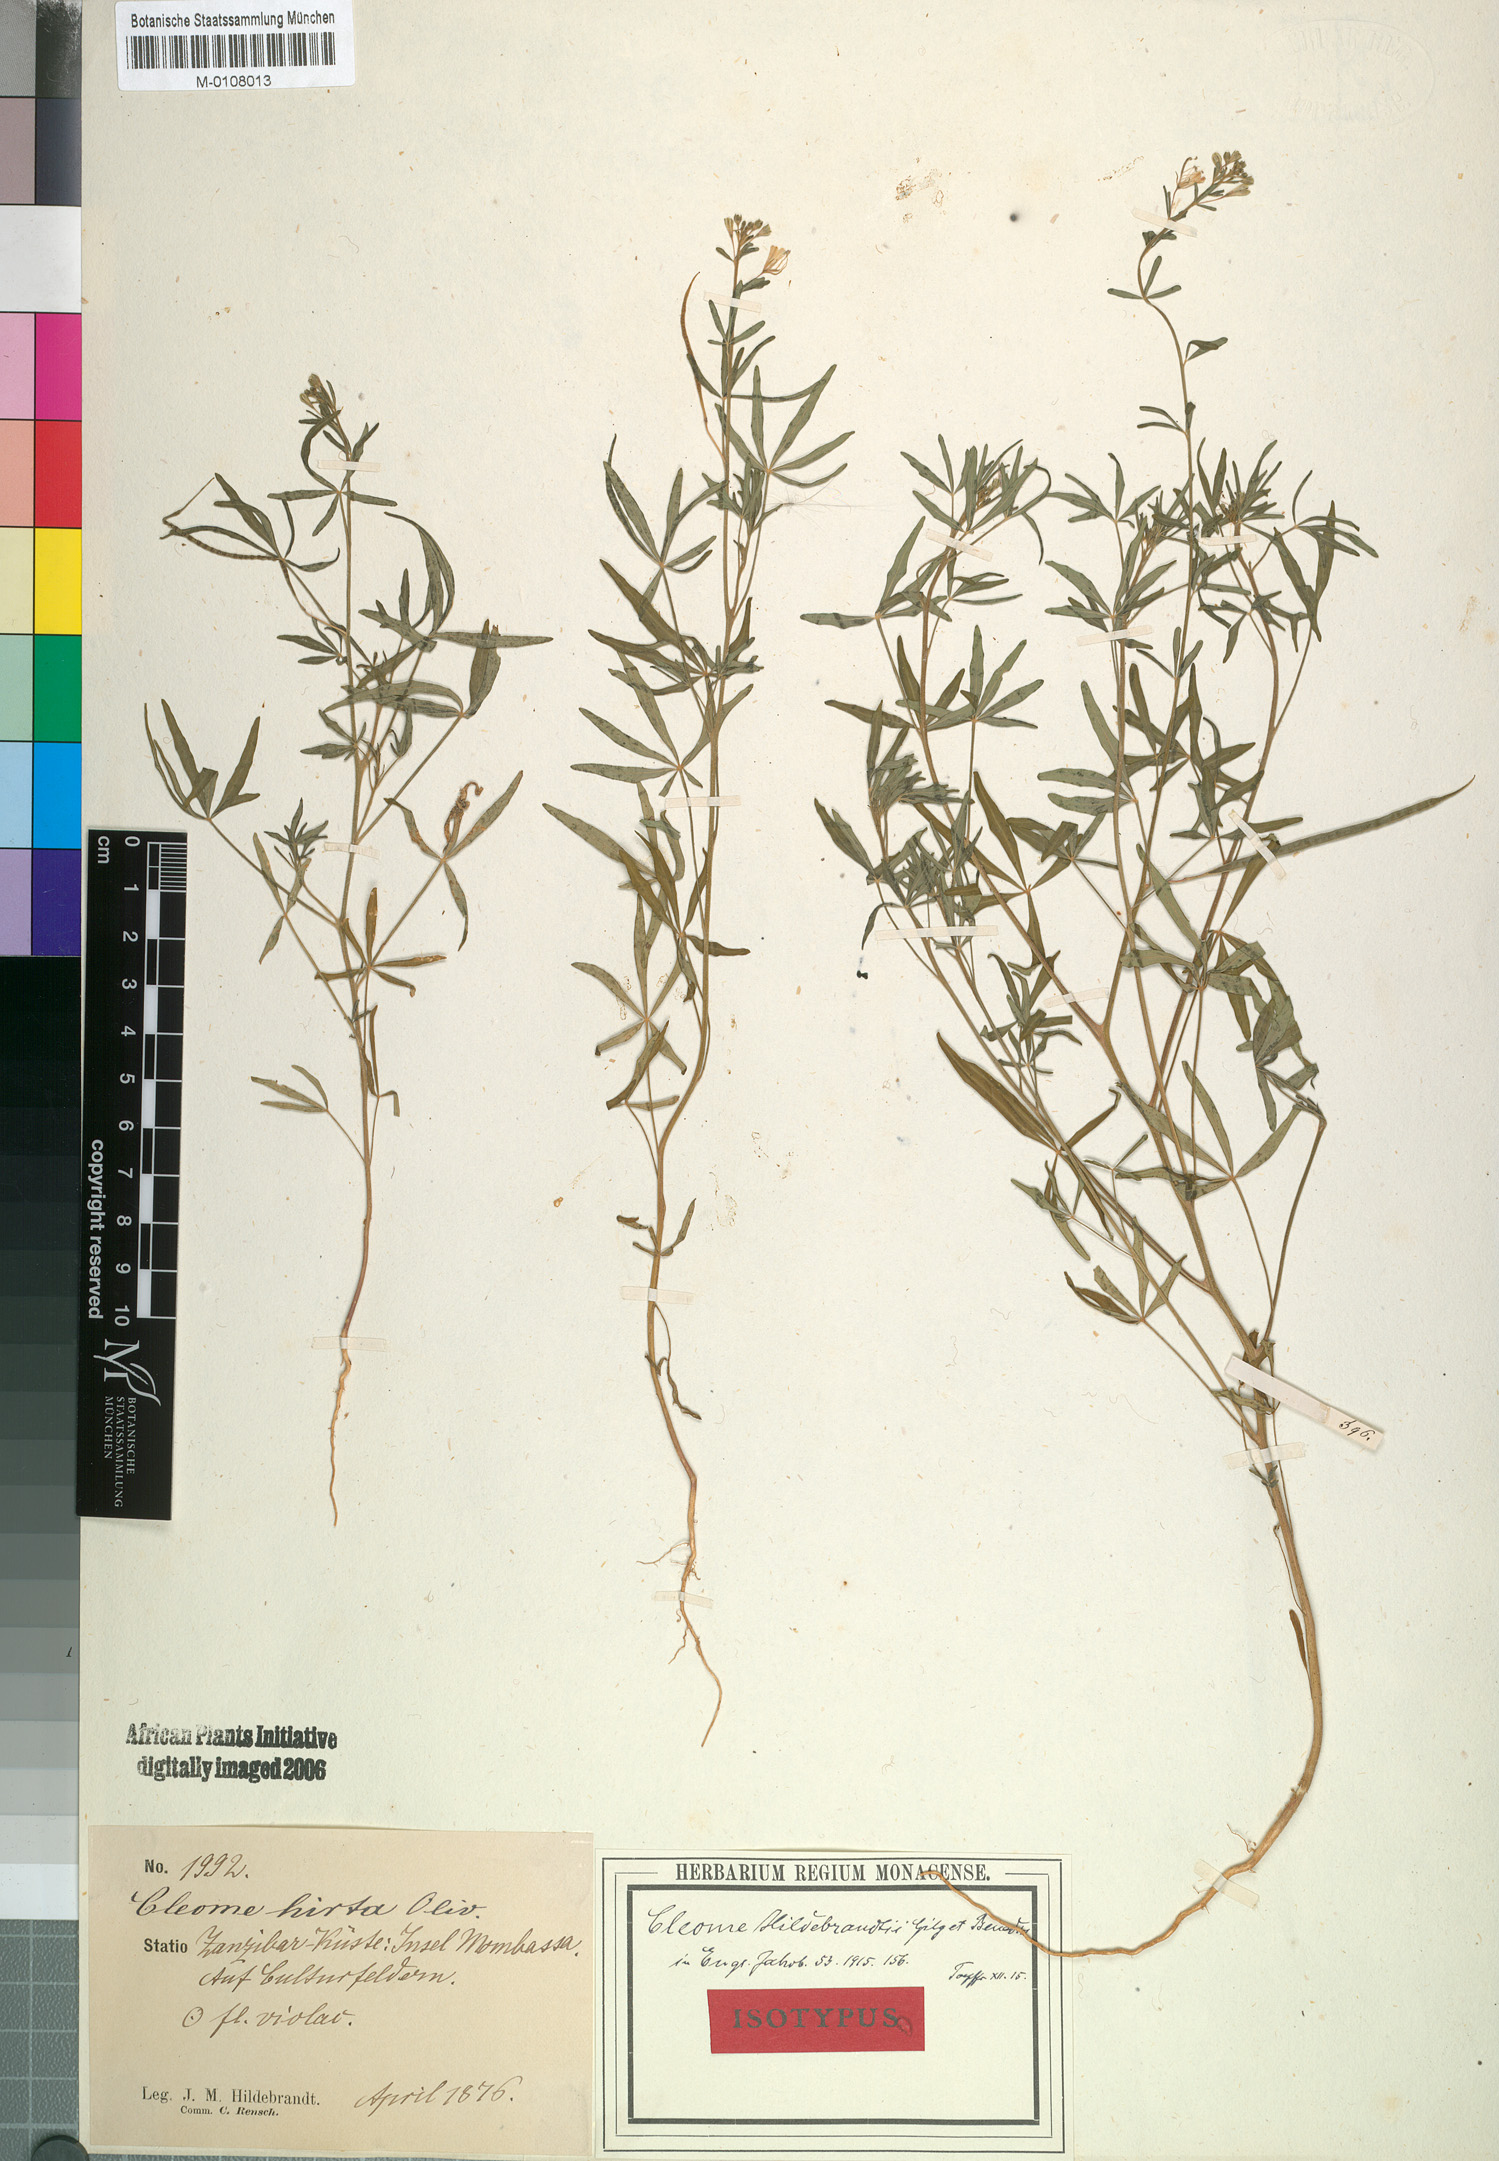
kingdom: Plantae
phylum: Tracheophyta
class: Magnoliopsida
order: Brassicales
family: Cleomaceae
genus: Sieruela
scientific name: Sieruela hirta
